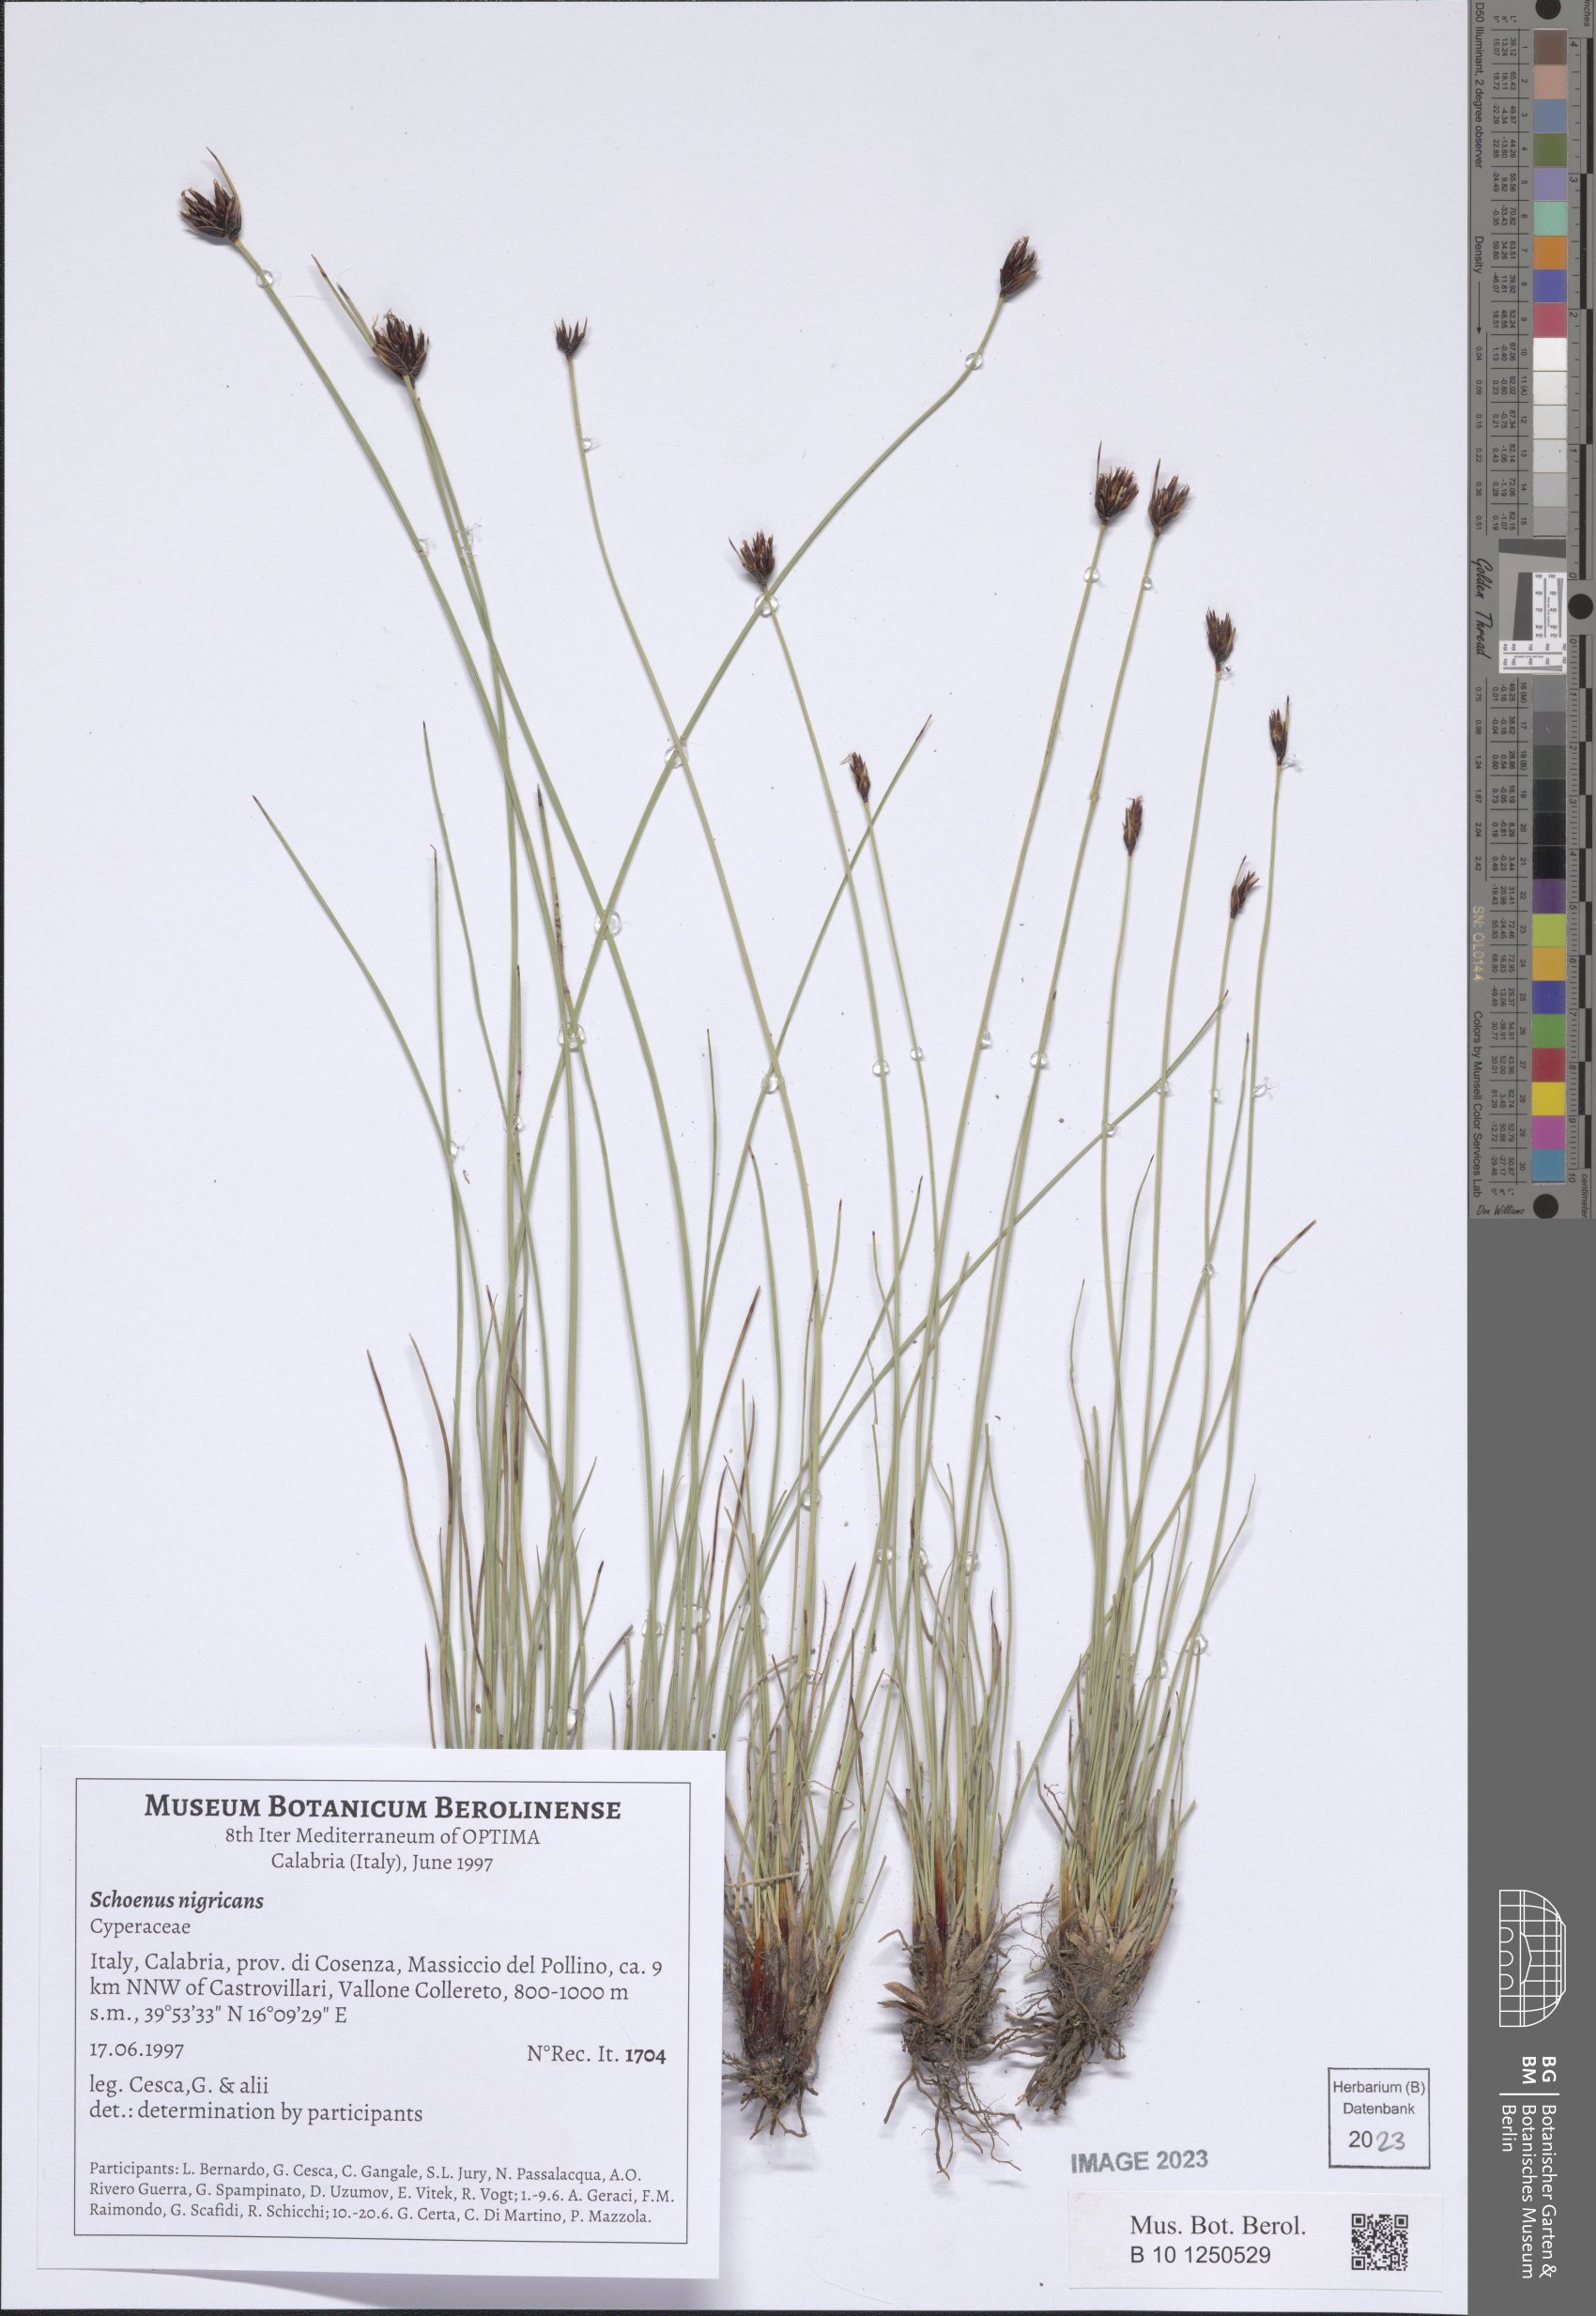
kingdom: Plantae
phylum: Tracheophyta
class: Liliopsida
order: Poales
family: Cyperaceae
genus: Schoenus
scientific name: Schoenus nigricans
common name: Black bog-rush
